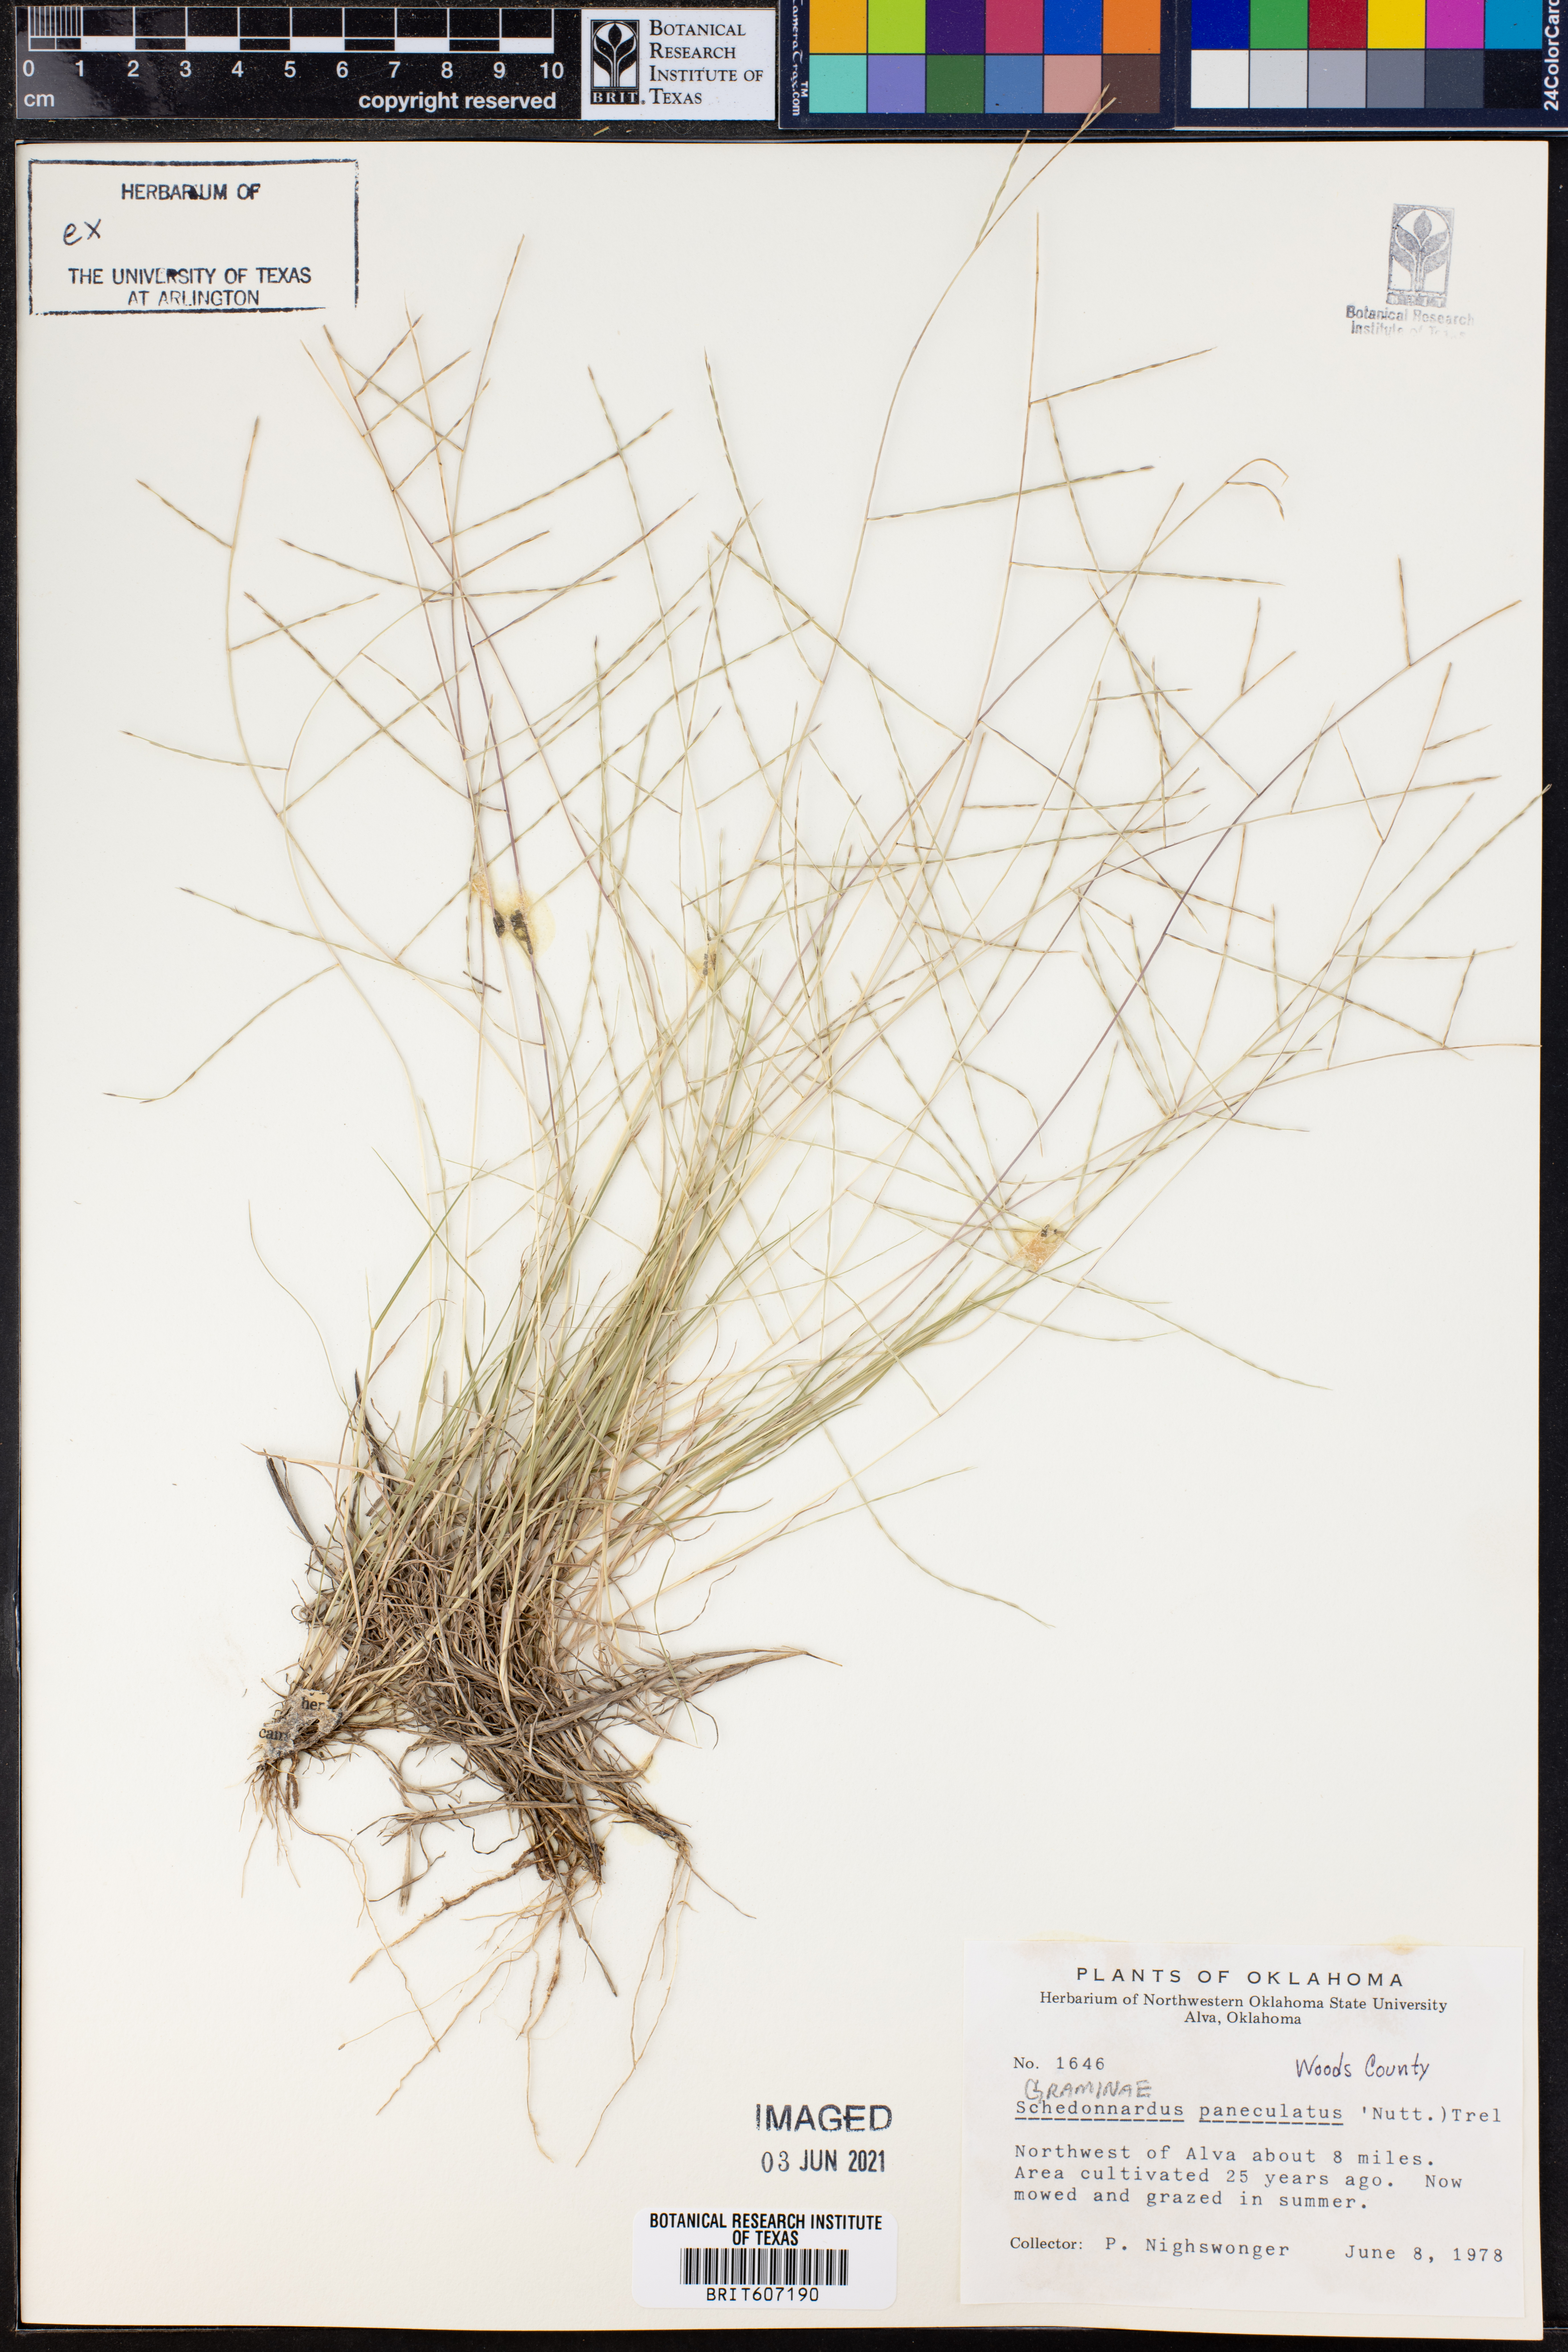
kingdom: Plantae
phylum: Tracheophyta
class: Liliopsida
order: Poales
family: Poaceae
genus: Muhlenbergia
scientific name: Muhlenbergia paniculata
